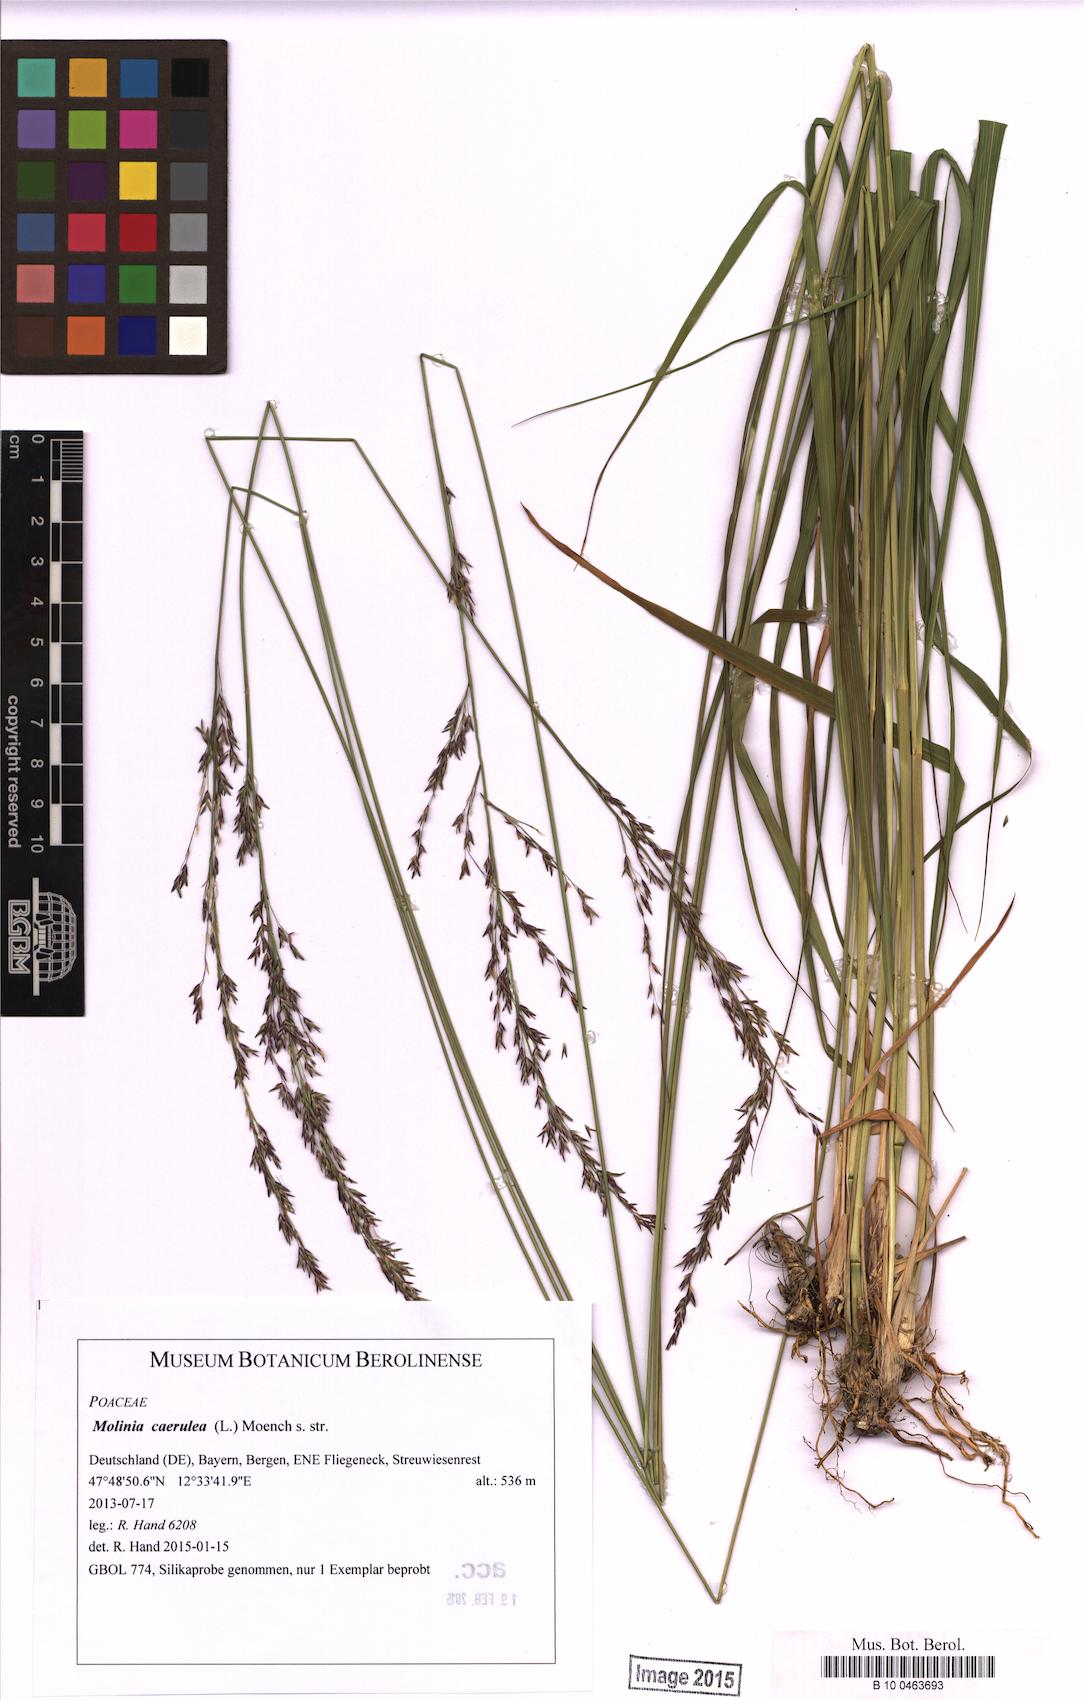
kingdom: Plantae
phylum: Tracheophyta
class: Liliopsida
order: Poales
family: Poaceae
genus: Molinia
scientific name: Molinia caerulea
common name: Purple moor-grass
